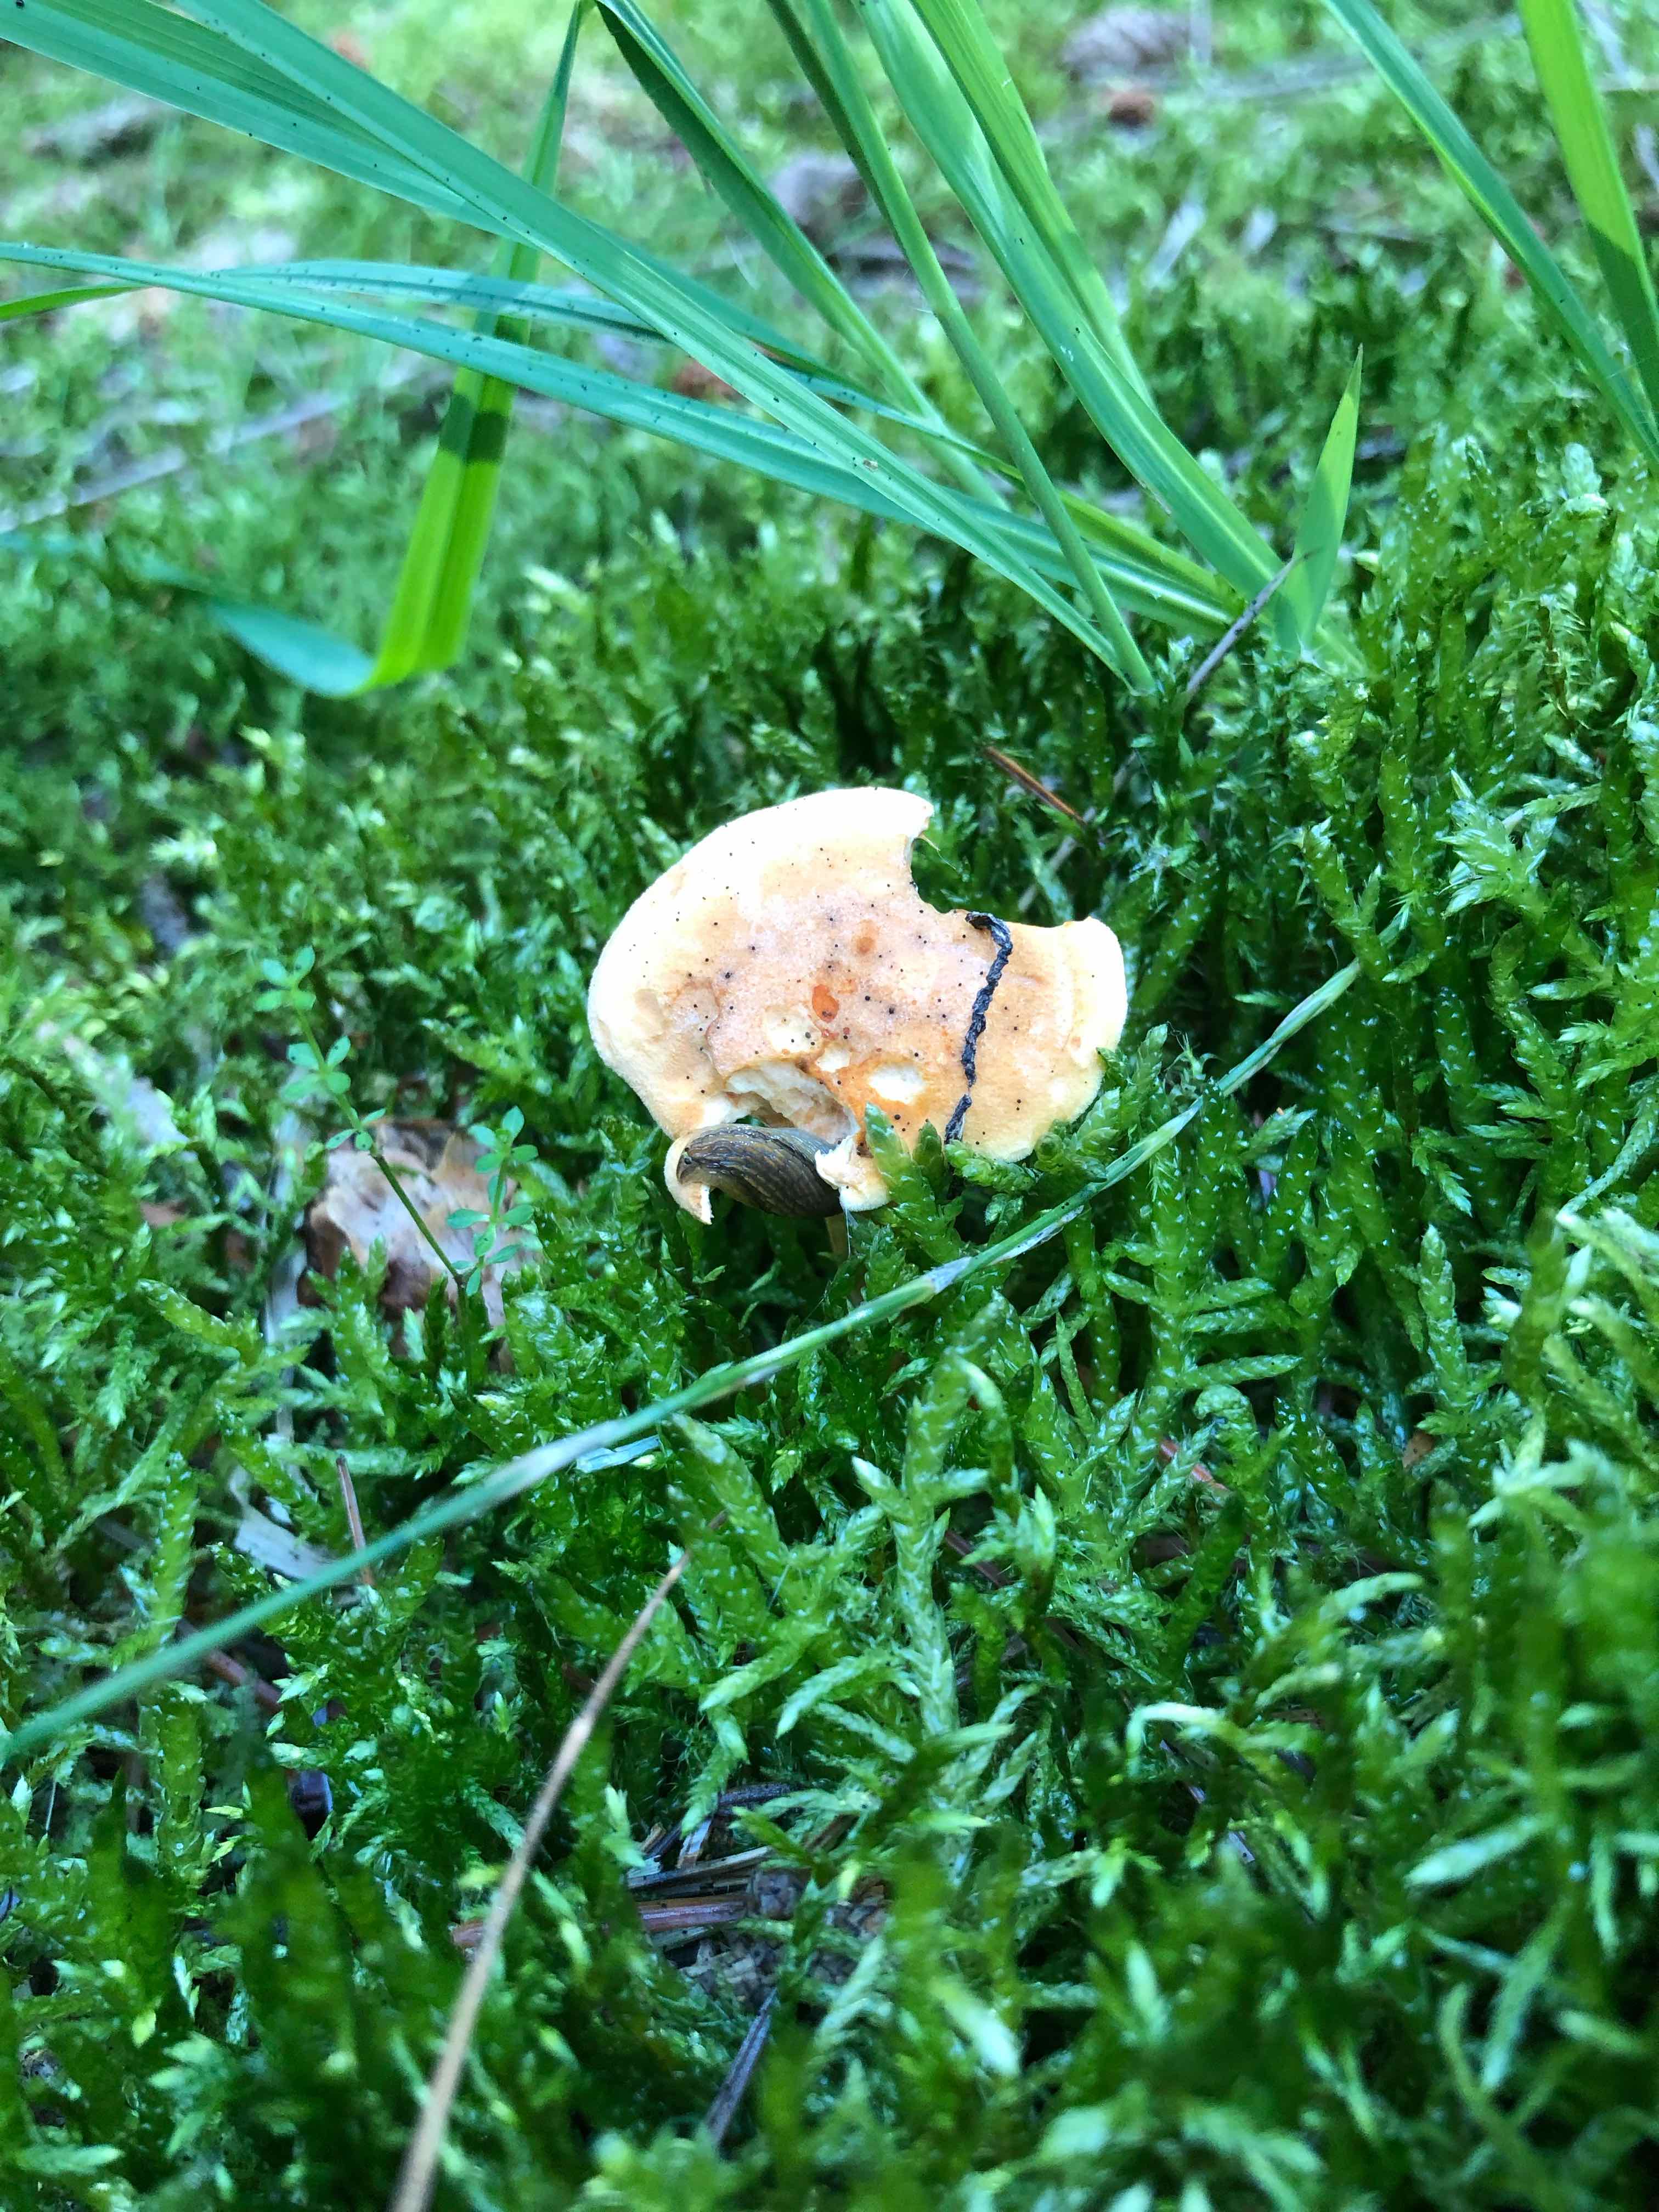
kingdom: Fungi
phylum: Basidiomycota
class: Agaricomycetes
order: Boletales
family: Hygrophoropsidaceae
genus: Hygrophoropsis
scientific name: Hygrophoropsis aurantiaca
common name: almindelig orangekantarel
